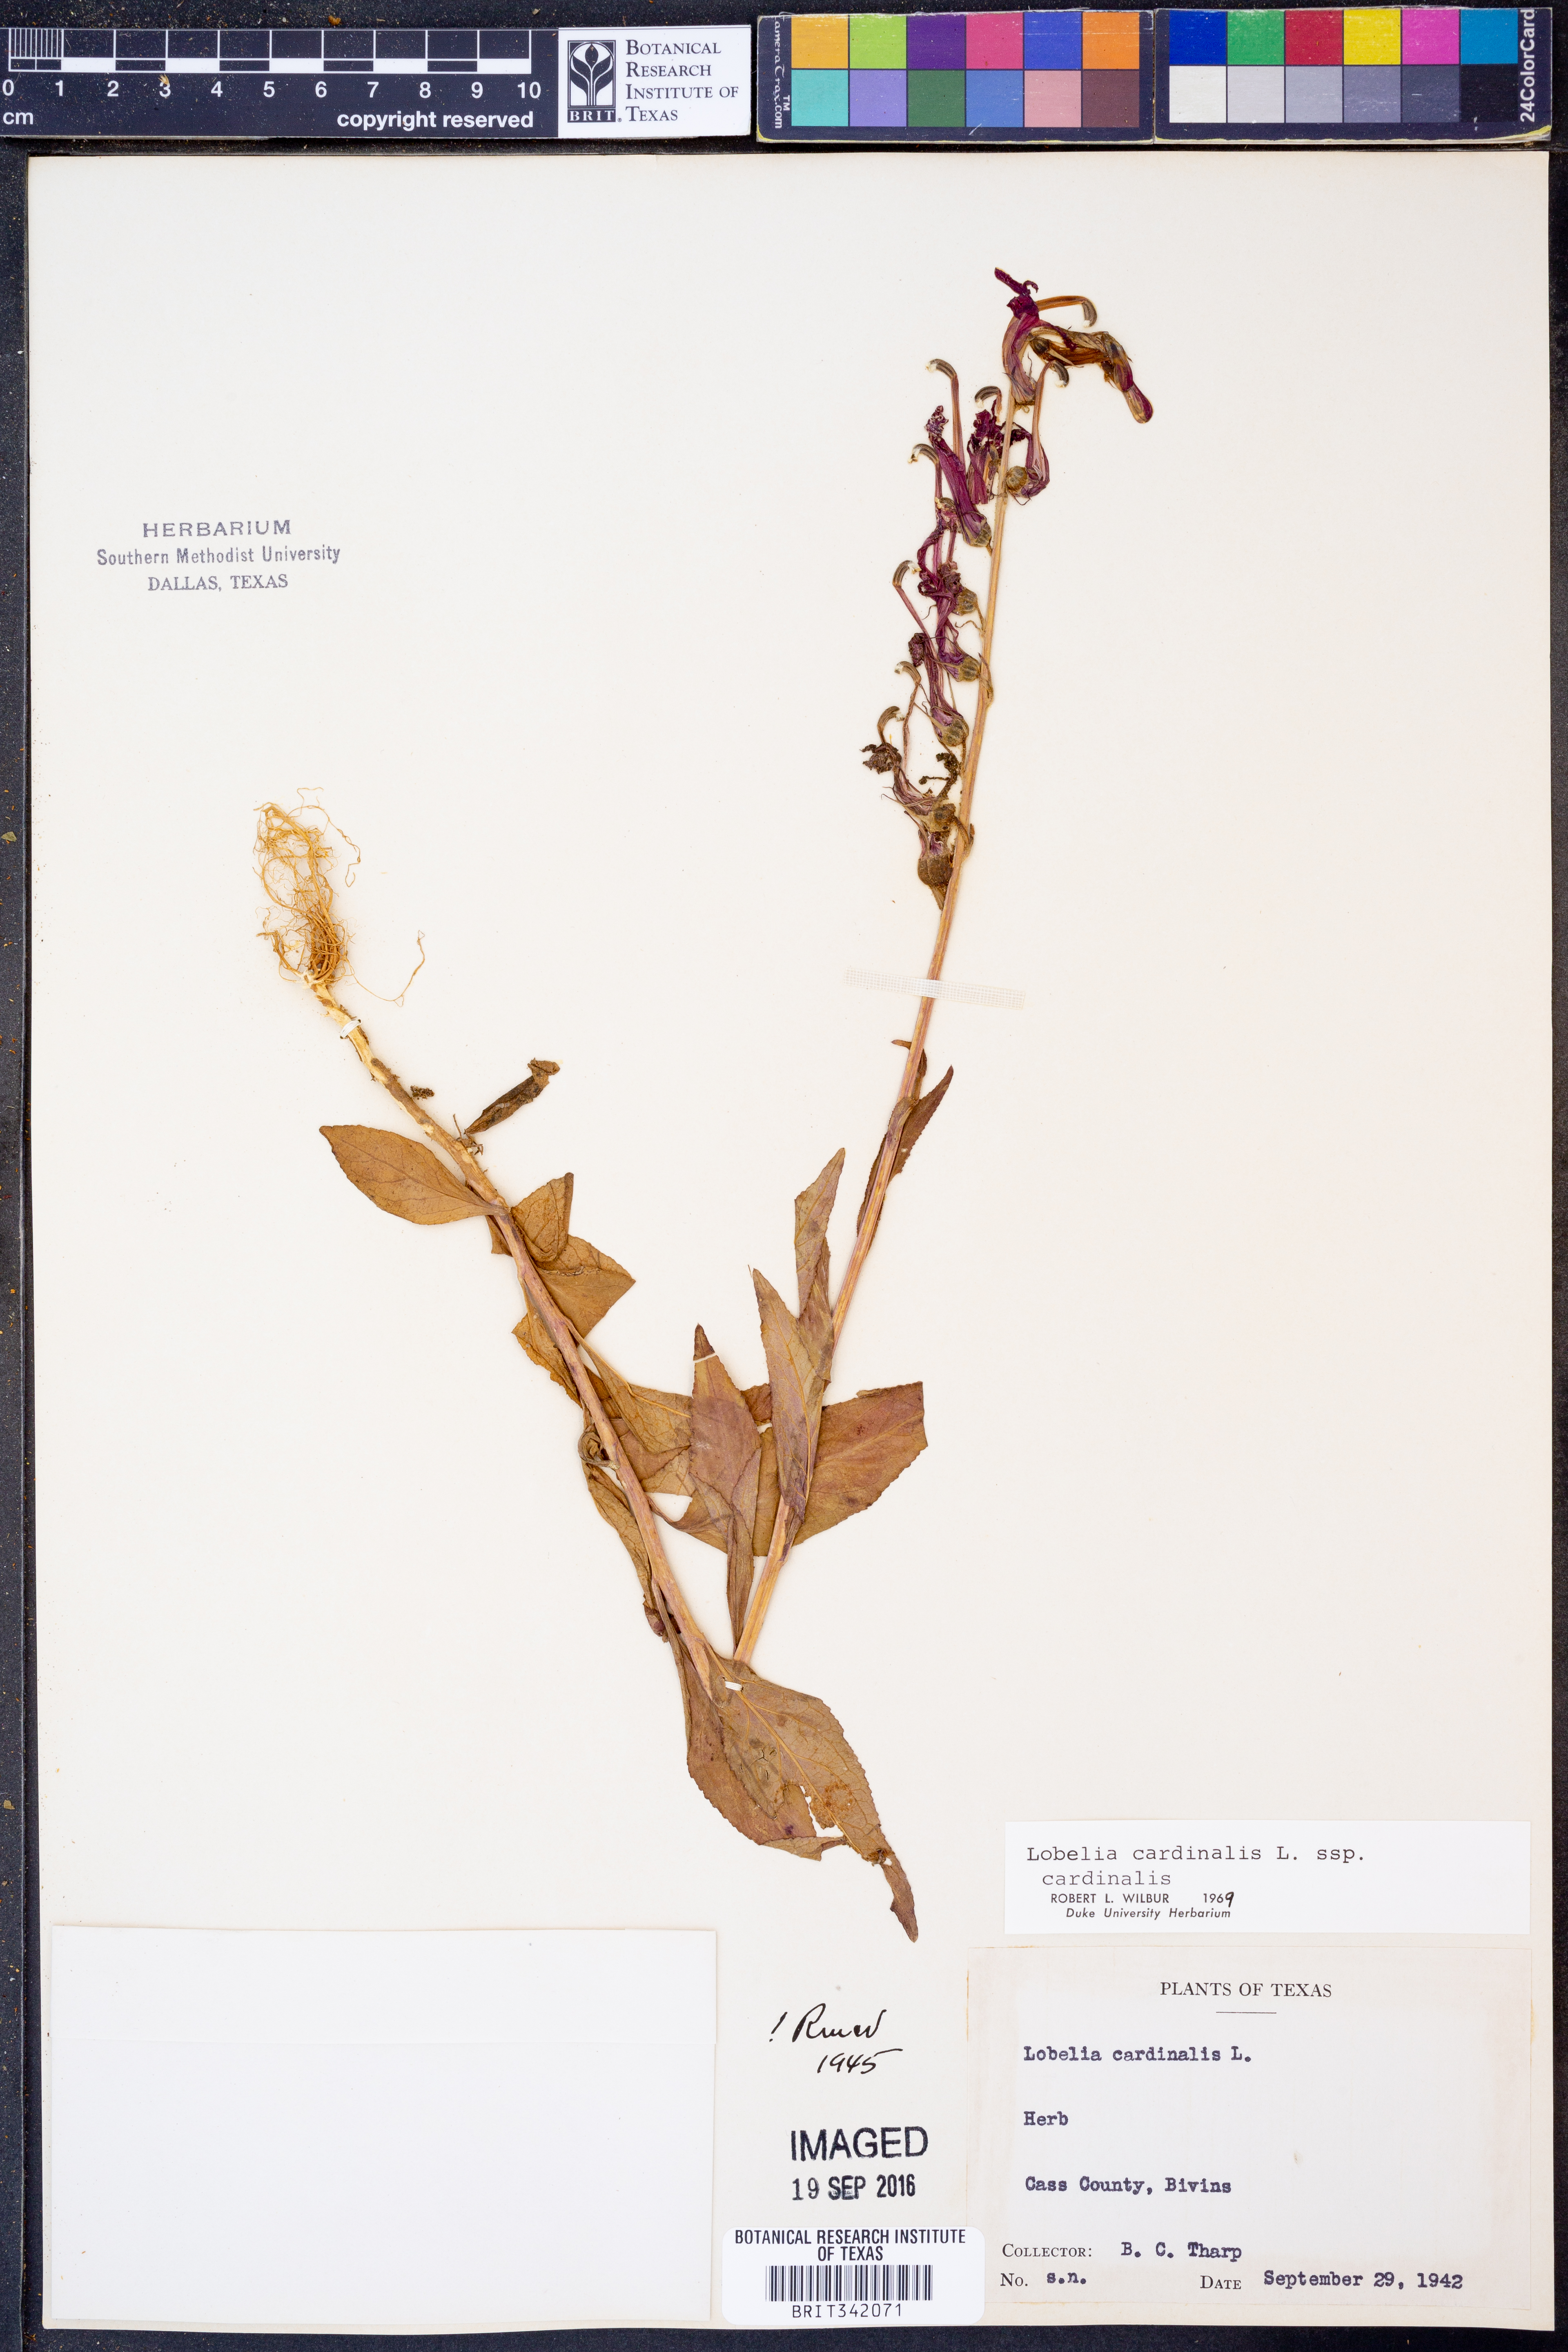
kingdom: Plantae
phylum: Tracheophyta
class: Magnoliopsida
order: Asterales
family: Campanulaceae
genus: Lobelia
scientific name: Lobelia cardinalis
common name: Cardinal flower
